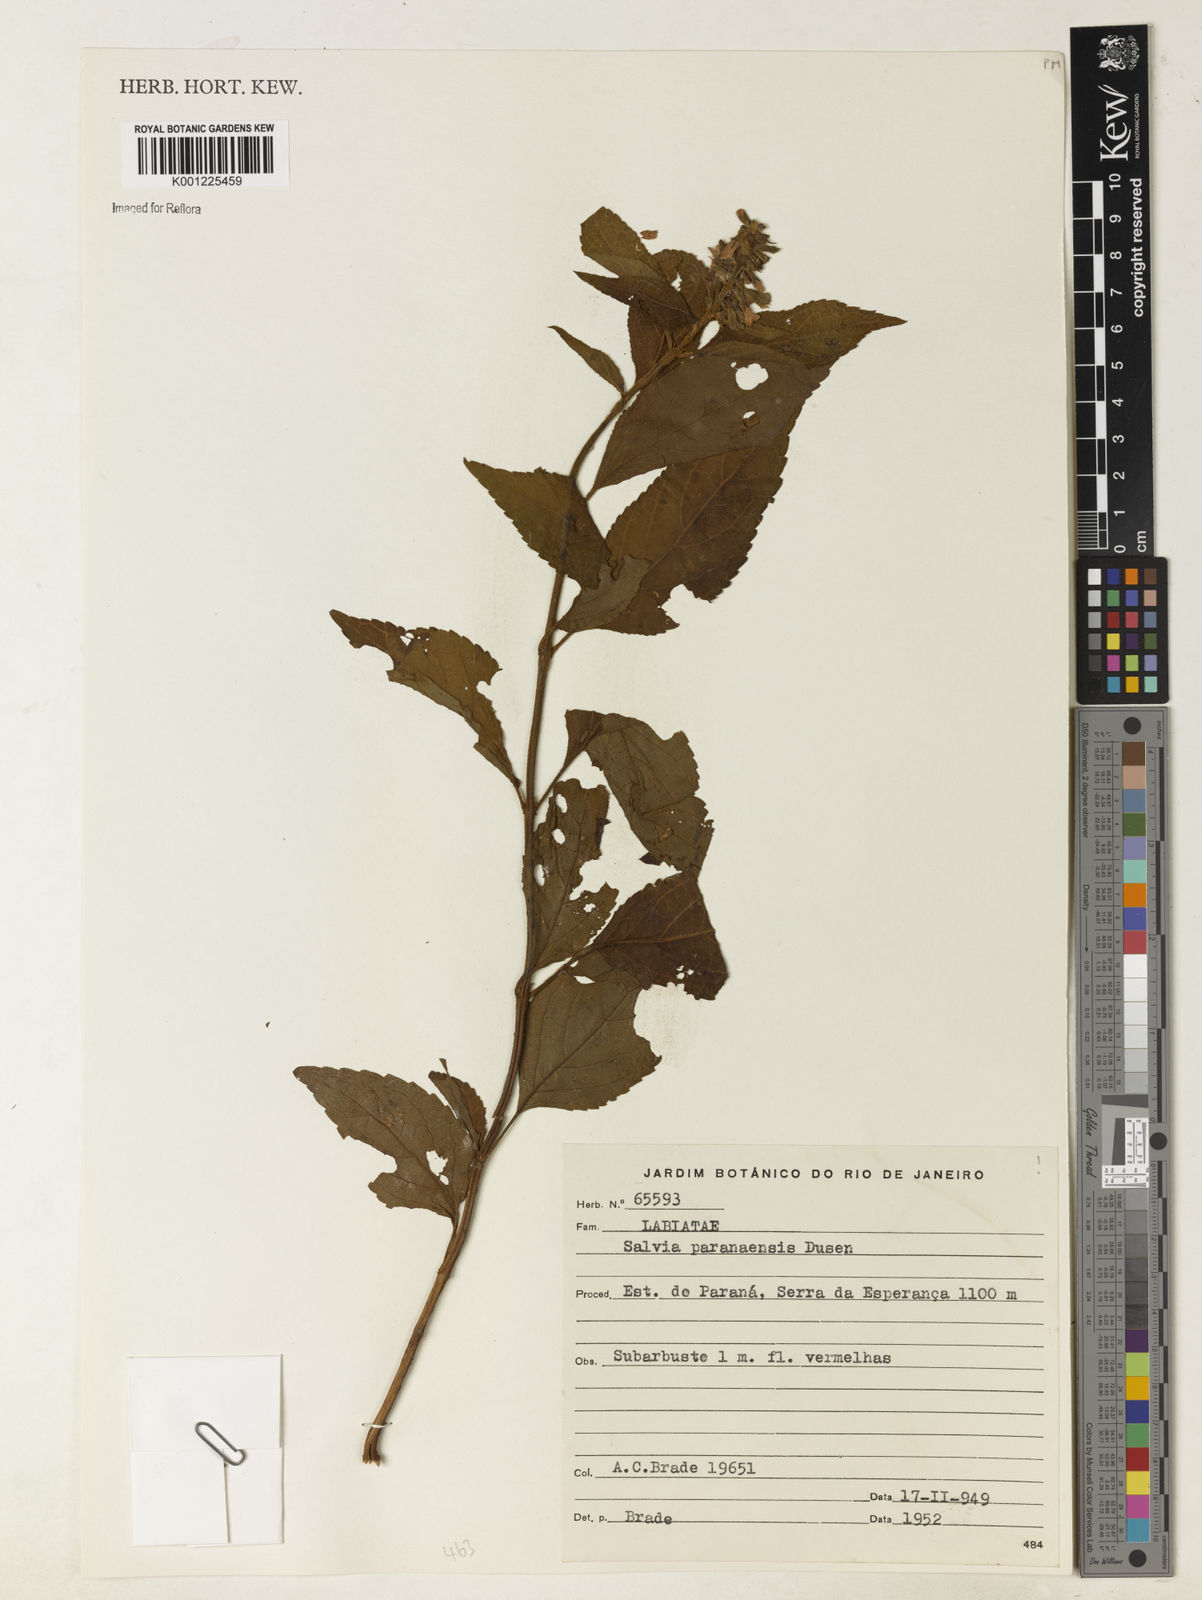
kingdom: Plantae
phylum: Tracheophyta
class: Magnoliopsida
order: Lamiales
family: Lamiaceae
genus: Salvia
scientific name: Salvia melissiflora
